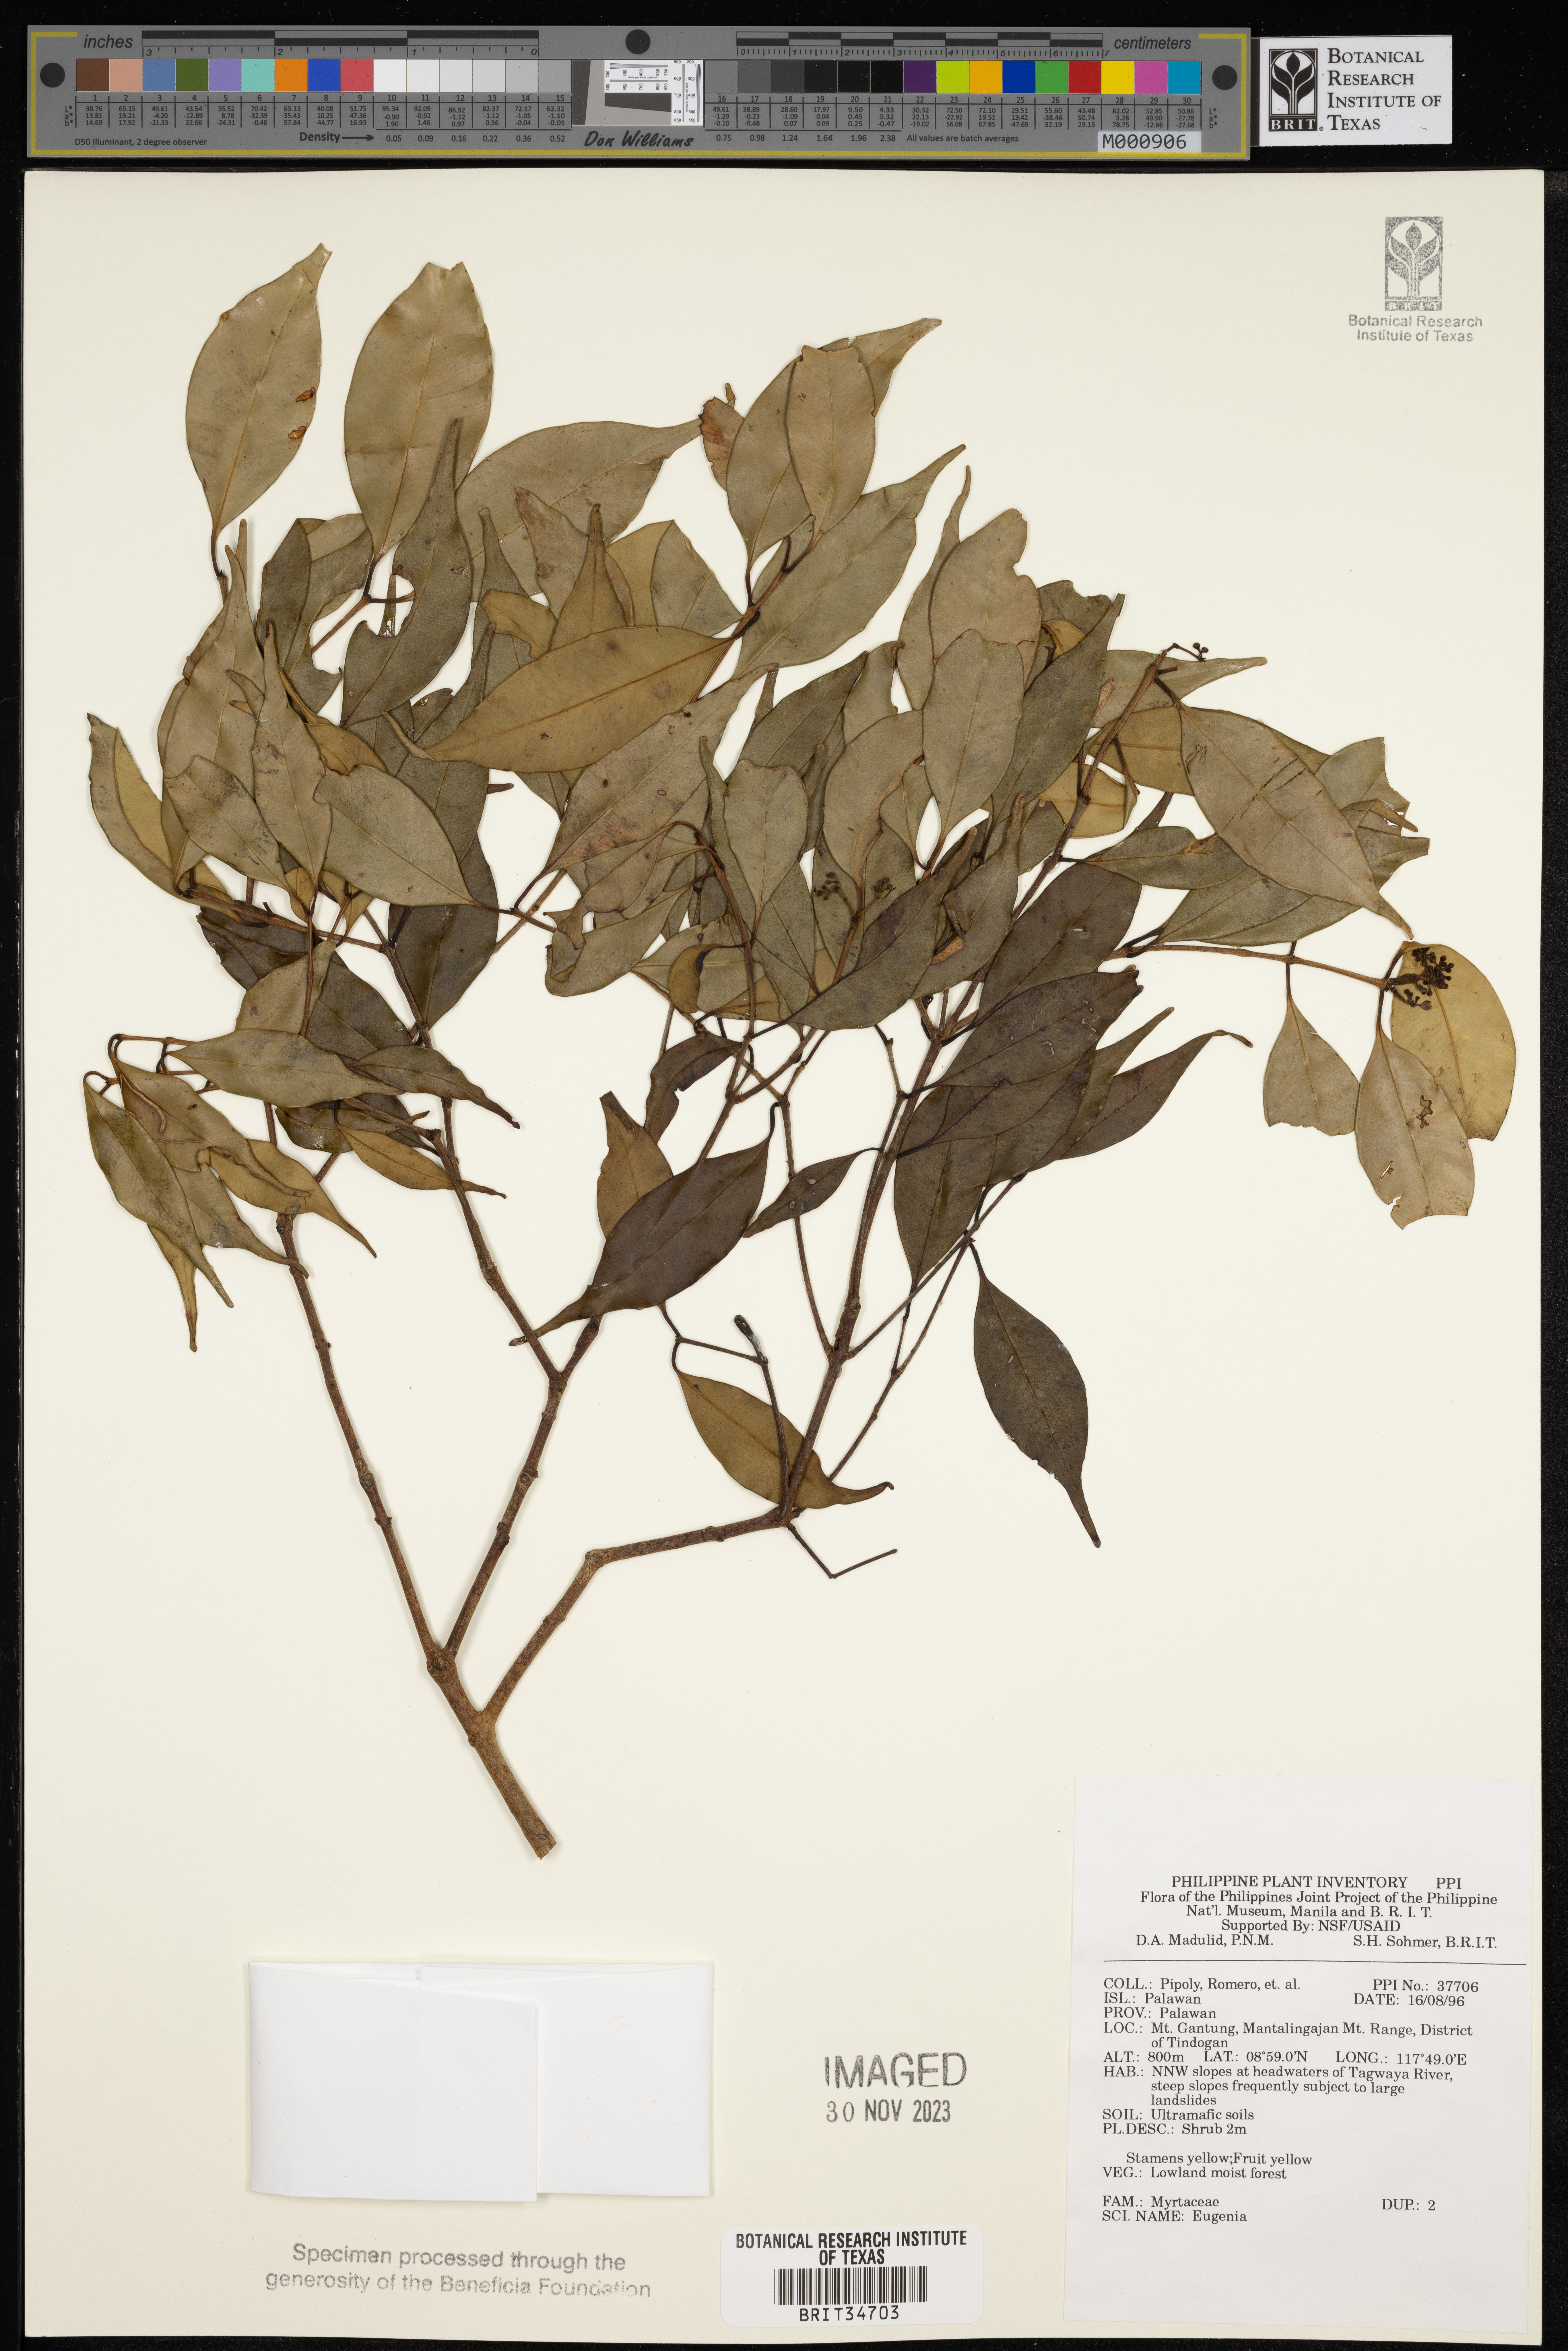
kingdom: Plantae
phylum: Tracheophyta
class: Magnoliopsida
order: Myrtales
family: Myrtaceae
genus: Eugenia
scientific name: Eugenia
